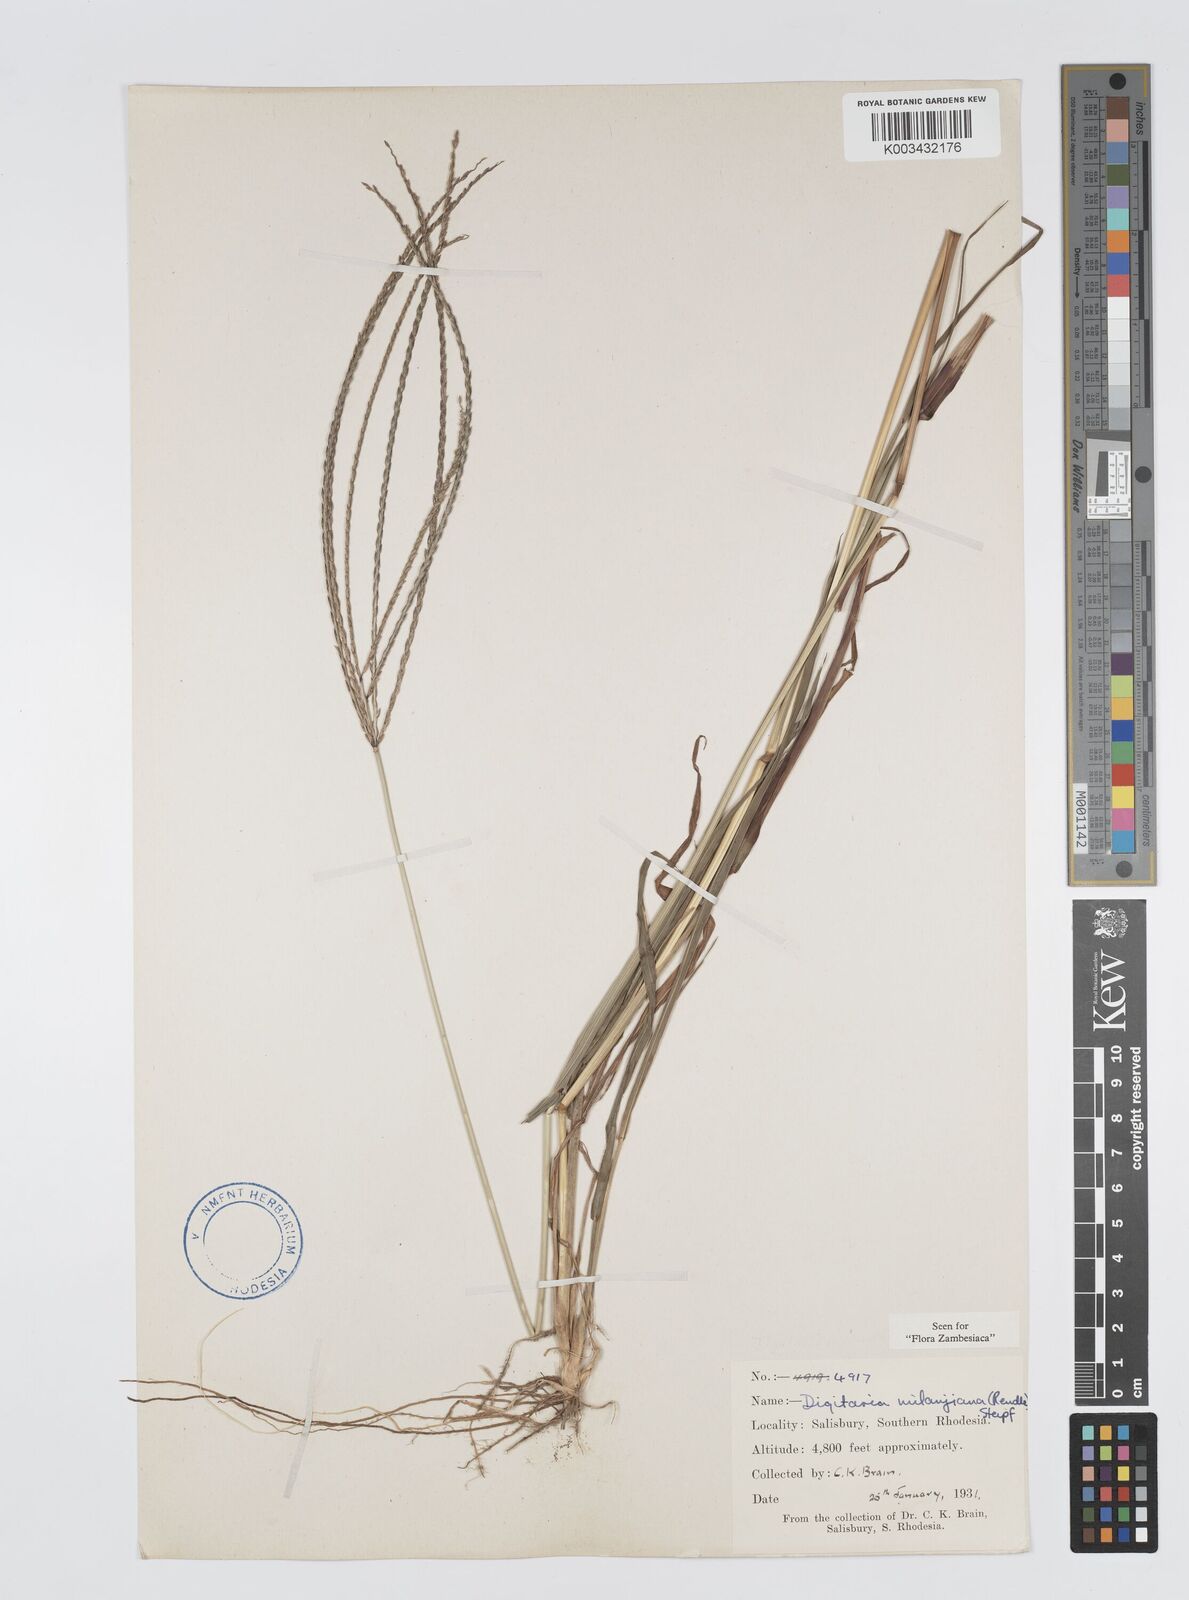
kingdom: Plantae
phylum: Tracheophyta
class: Liliopsida
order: Poales
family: Poaceae
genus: Digitaria
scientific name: Digitaria milanjiana
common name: Madagascar crabgrass
